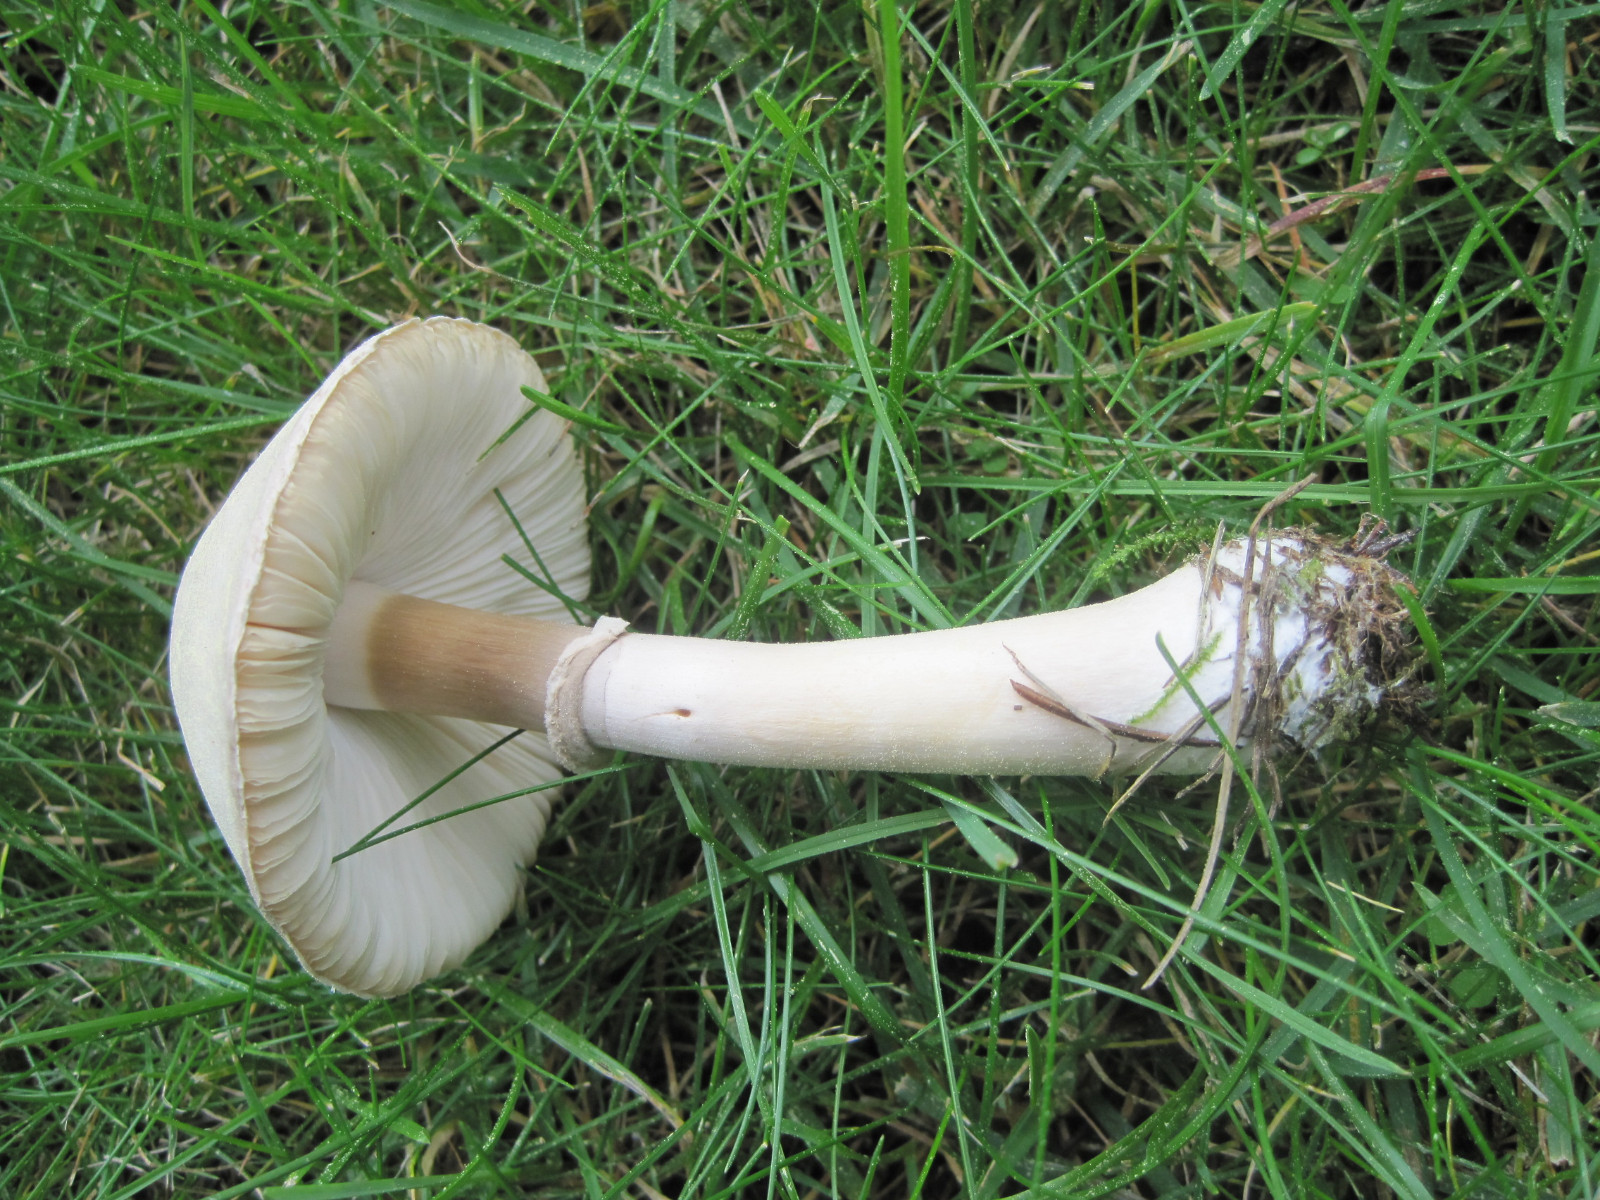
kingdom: Fungi
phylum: Basidiomycota
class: Agaricomycetes
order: Agaricales
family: Agaricaceae
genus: Leucoagaricus
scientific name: Leucoagaricus leucothites
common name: rosabladet silkehat
